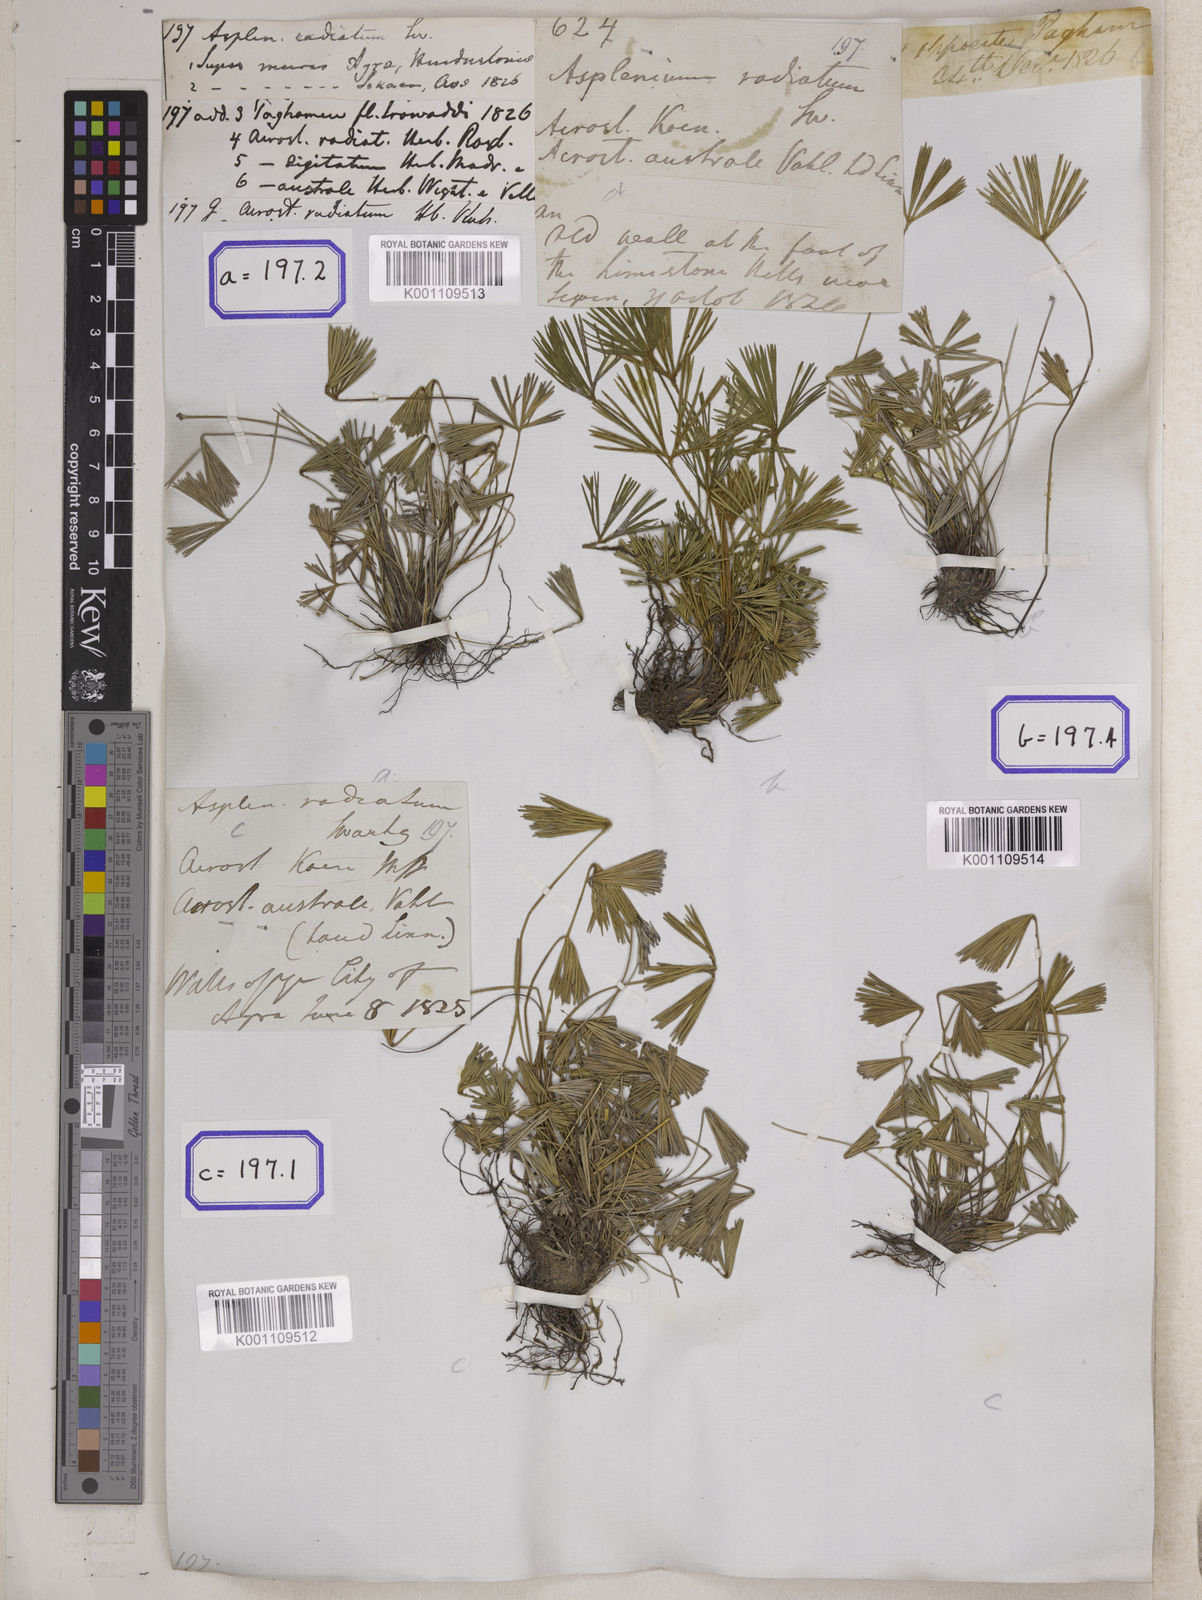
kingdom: Plantae
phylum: Tracheophyta
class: Polypodiopsida
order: Polypodiales
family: Pteridaceae
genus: Actiniopteris
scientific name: Actiniopteris radiata
